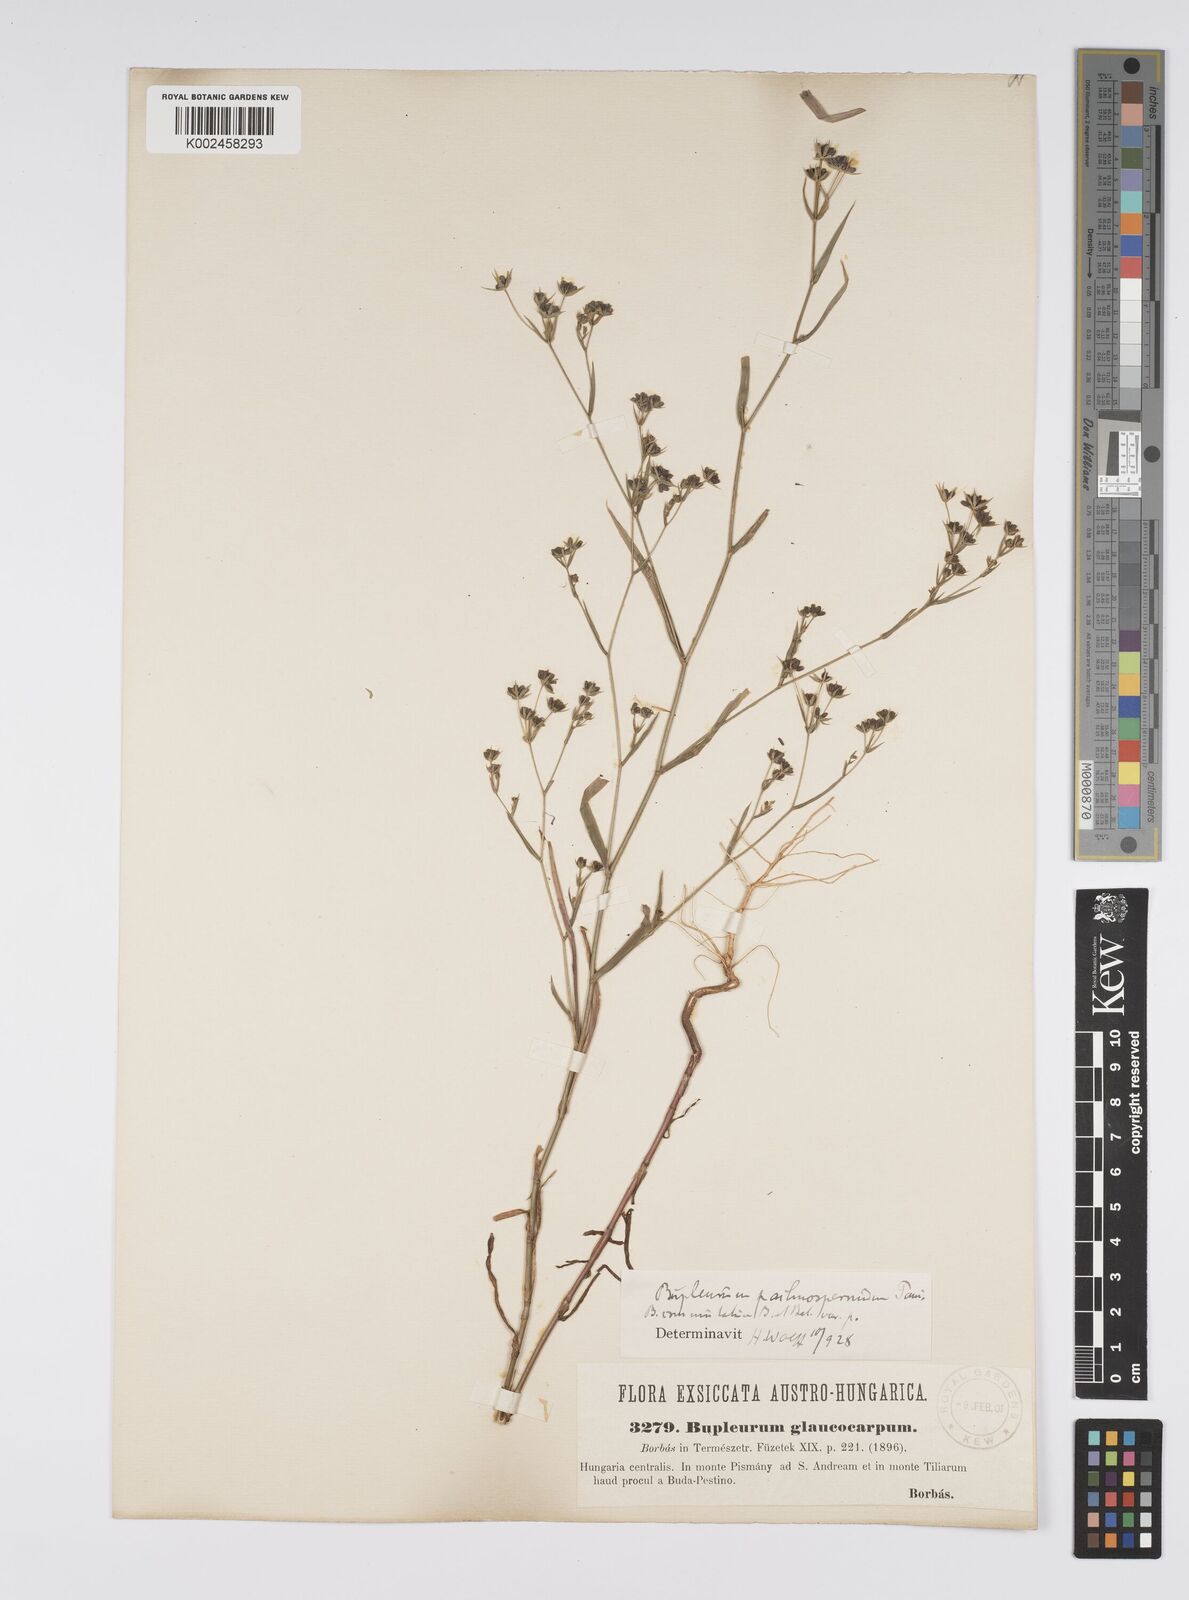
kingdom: Plantae
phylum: Tracheophyta
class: Magnoliopsida
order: Apiales
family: Apiaceae
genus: Bupleurum
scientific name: Bupleurum commutatum
